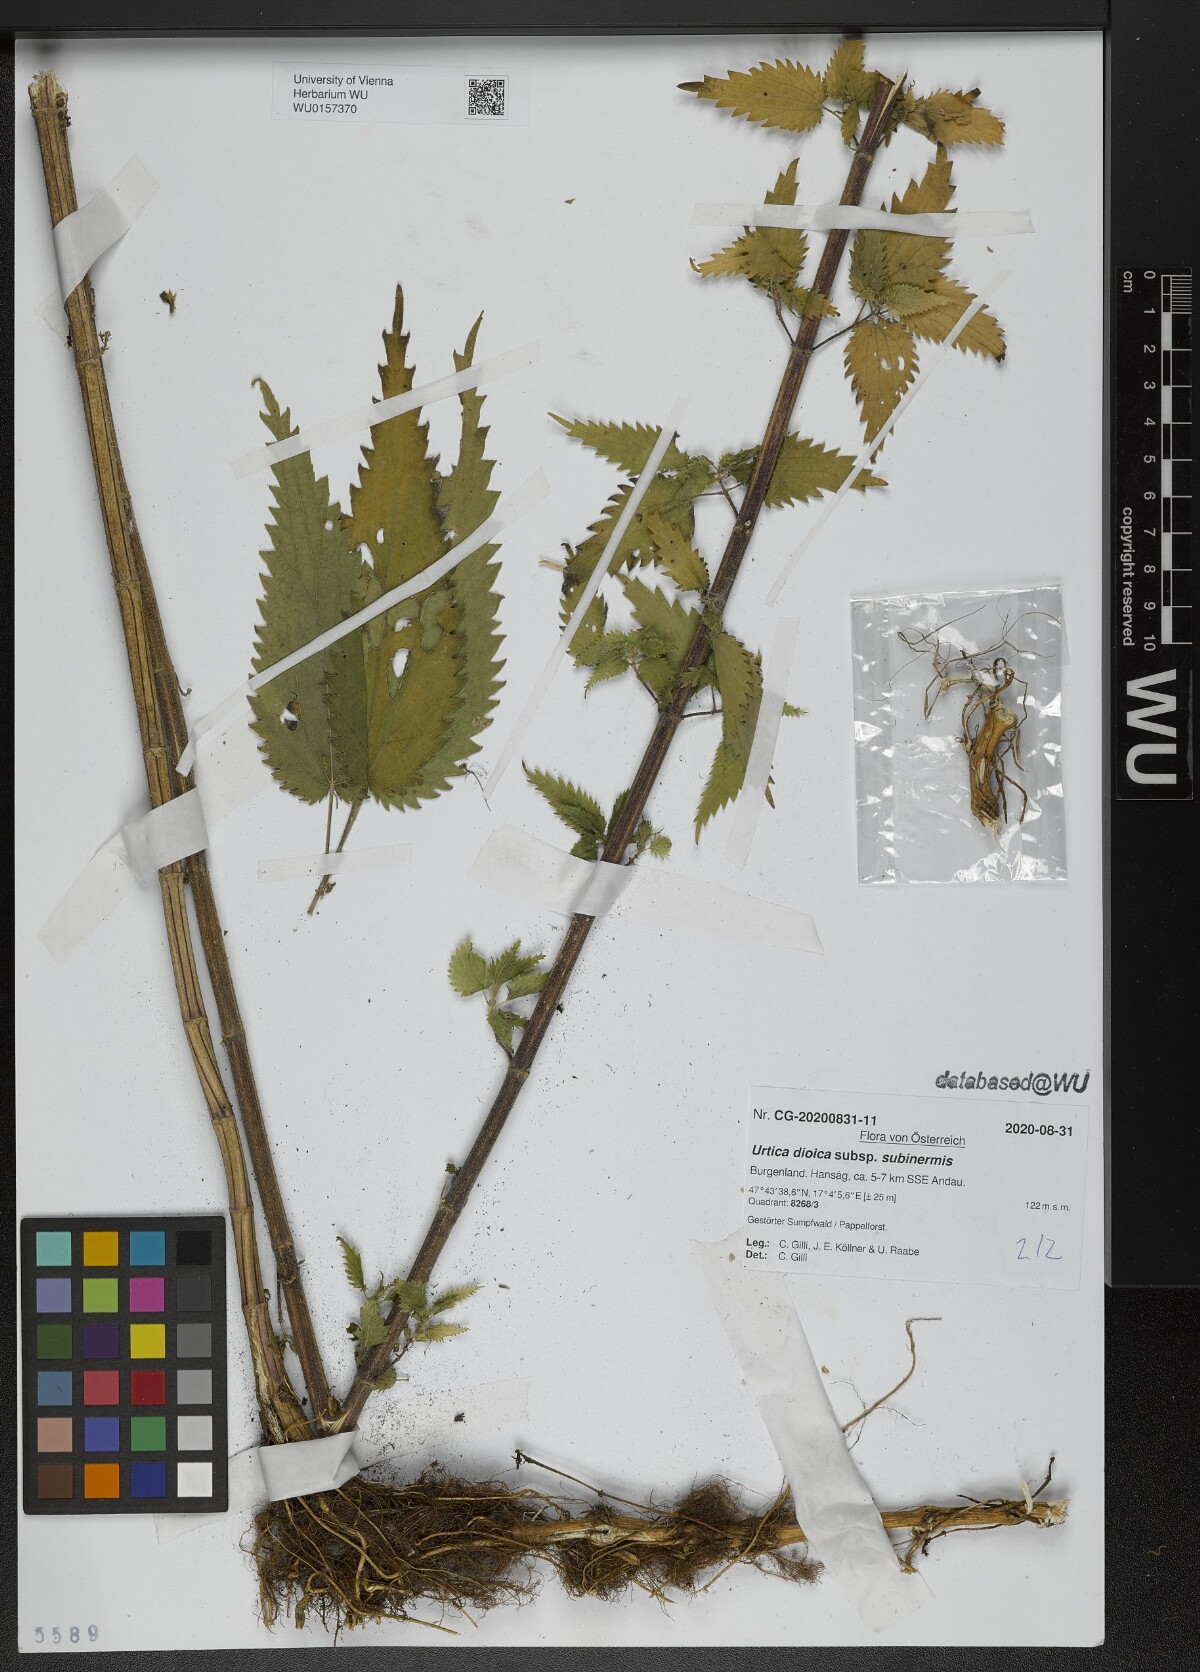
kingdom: Plantae
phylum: Tracheophyta
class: Magnoliopsida
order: Rosales
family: Urticaceae
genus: Urtica
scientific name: Urtica subinermis
